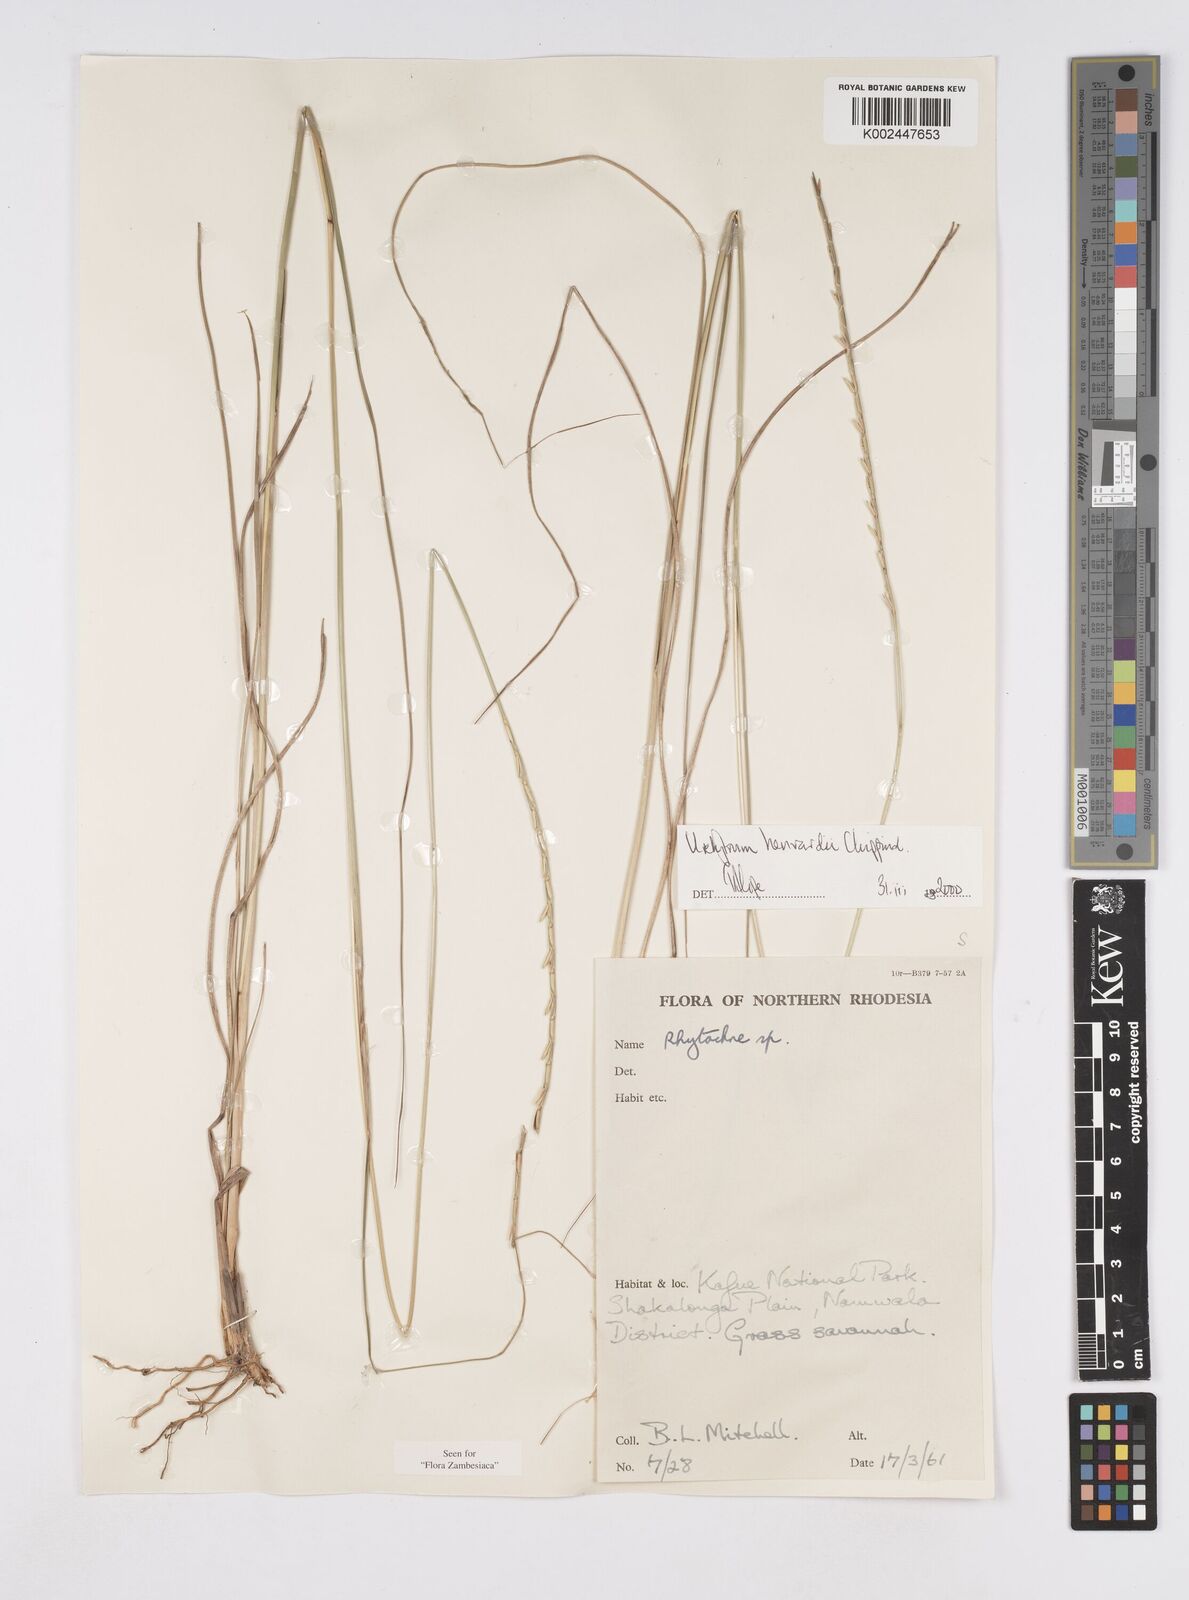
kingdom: Plantae
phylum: Tracheophyta
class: Liliopsida
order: Poales
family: Poaceae
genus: Urelytrum
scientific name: Urelytrum henrardii
